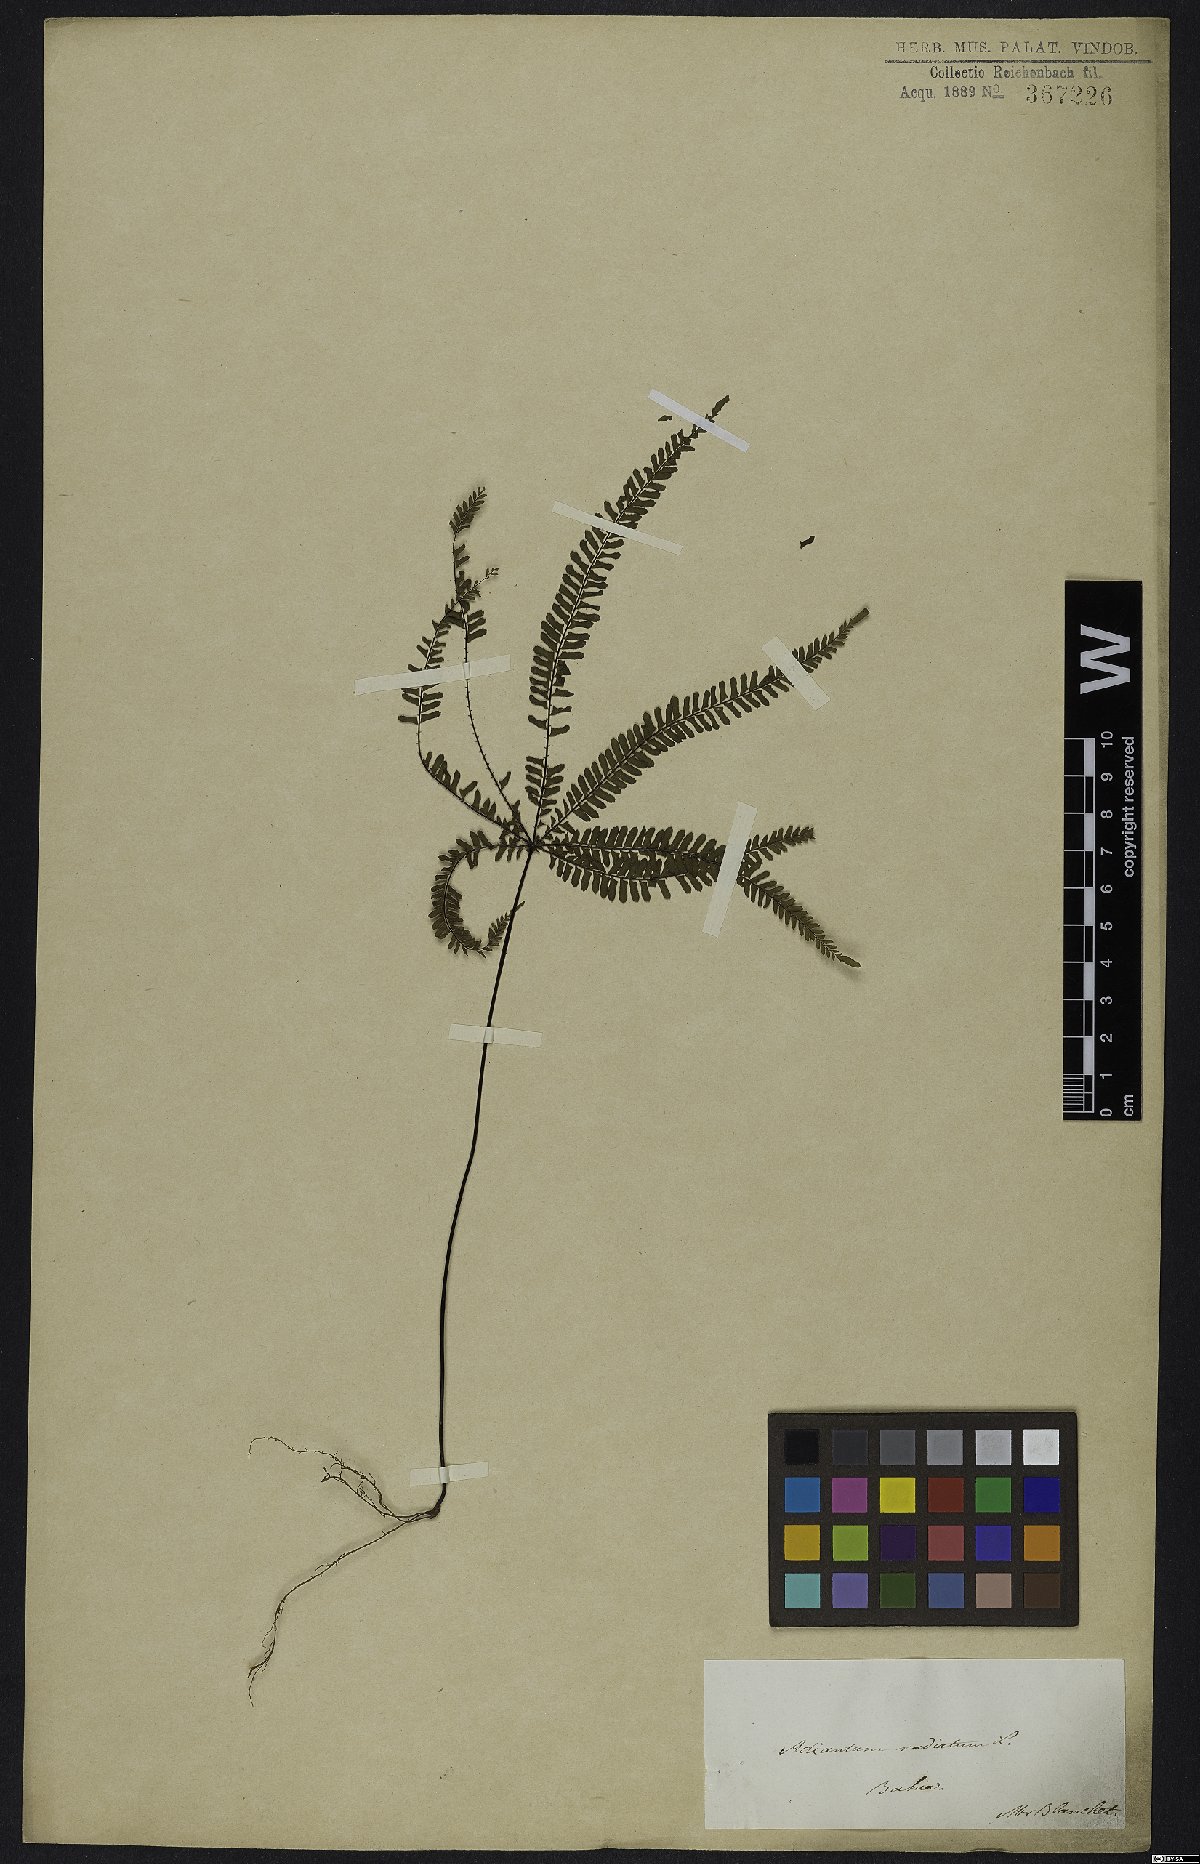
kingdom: Plantae
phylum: Tracheophyta
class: Polypodiopsida
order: Polypodiales
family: Pteridaceae
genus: Adiantopsis
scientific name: Adiantopsis radiata
